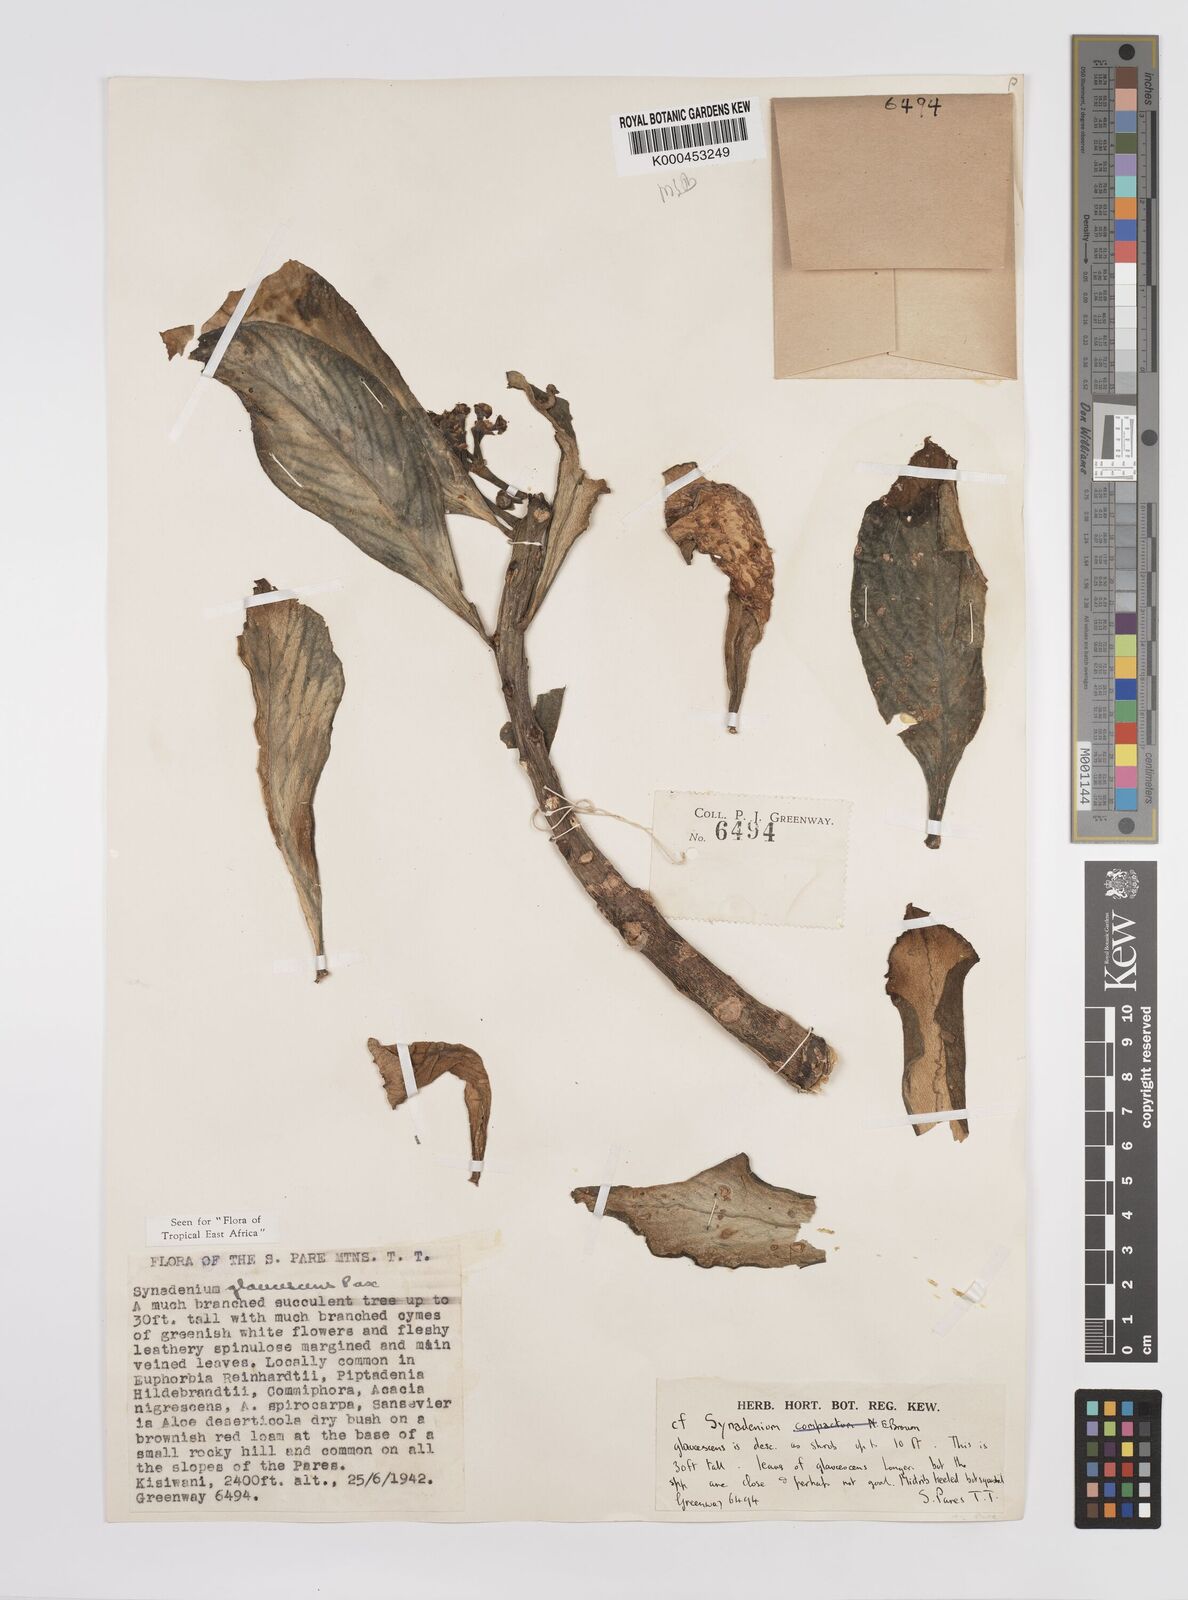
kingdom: Plantae
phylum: Tracheophyta
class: Magnoliopsida
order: Malpighiales
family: Euphorbiaceae
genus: Euphorbia
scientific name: Euphorbia neoglaucescens
